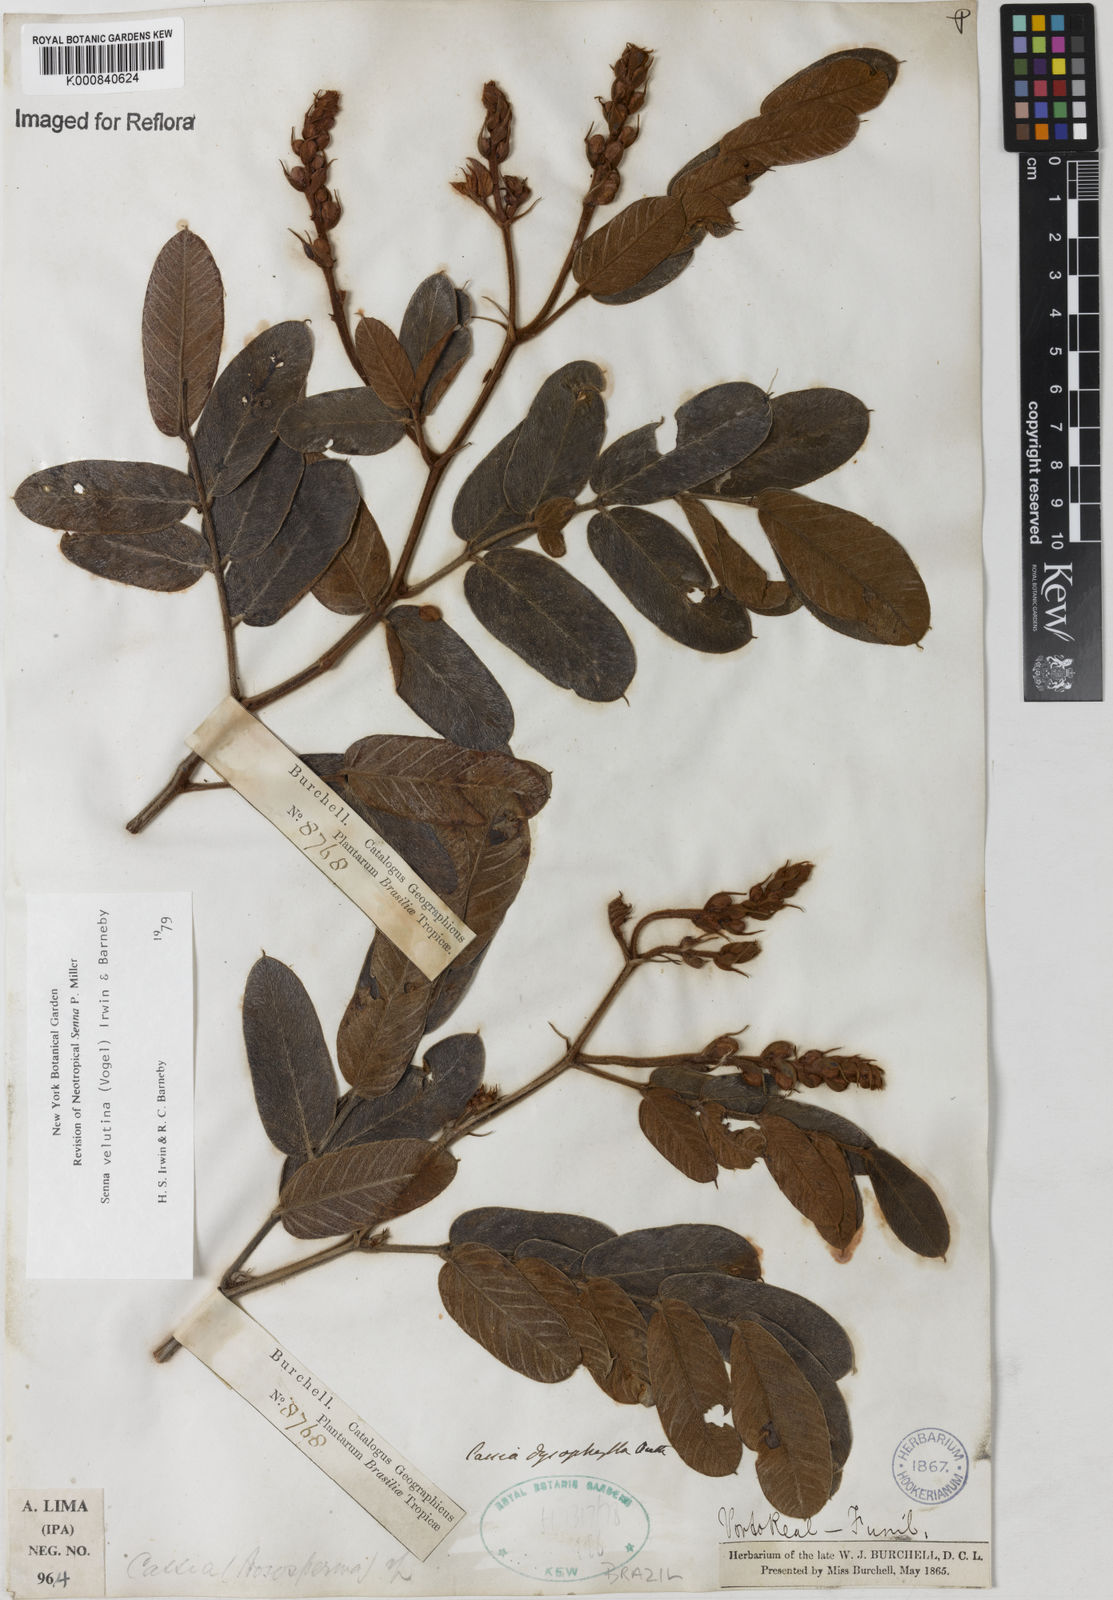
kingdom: Plantae
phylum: Tracheophyta
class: Magnoliopsida
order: Fabales
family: Fabaceae
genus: Senna
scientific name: Senna velutina
